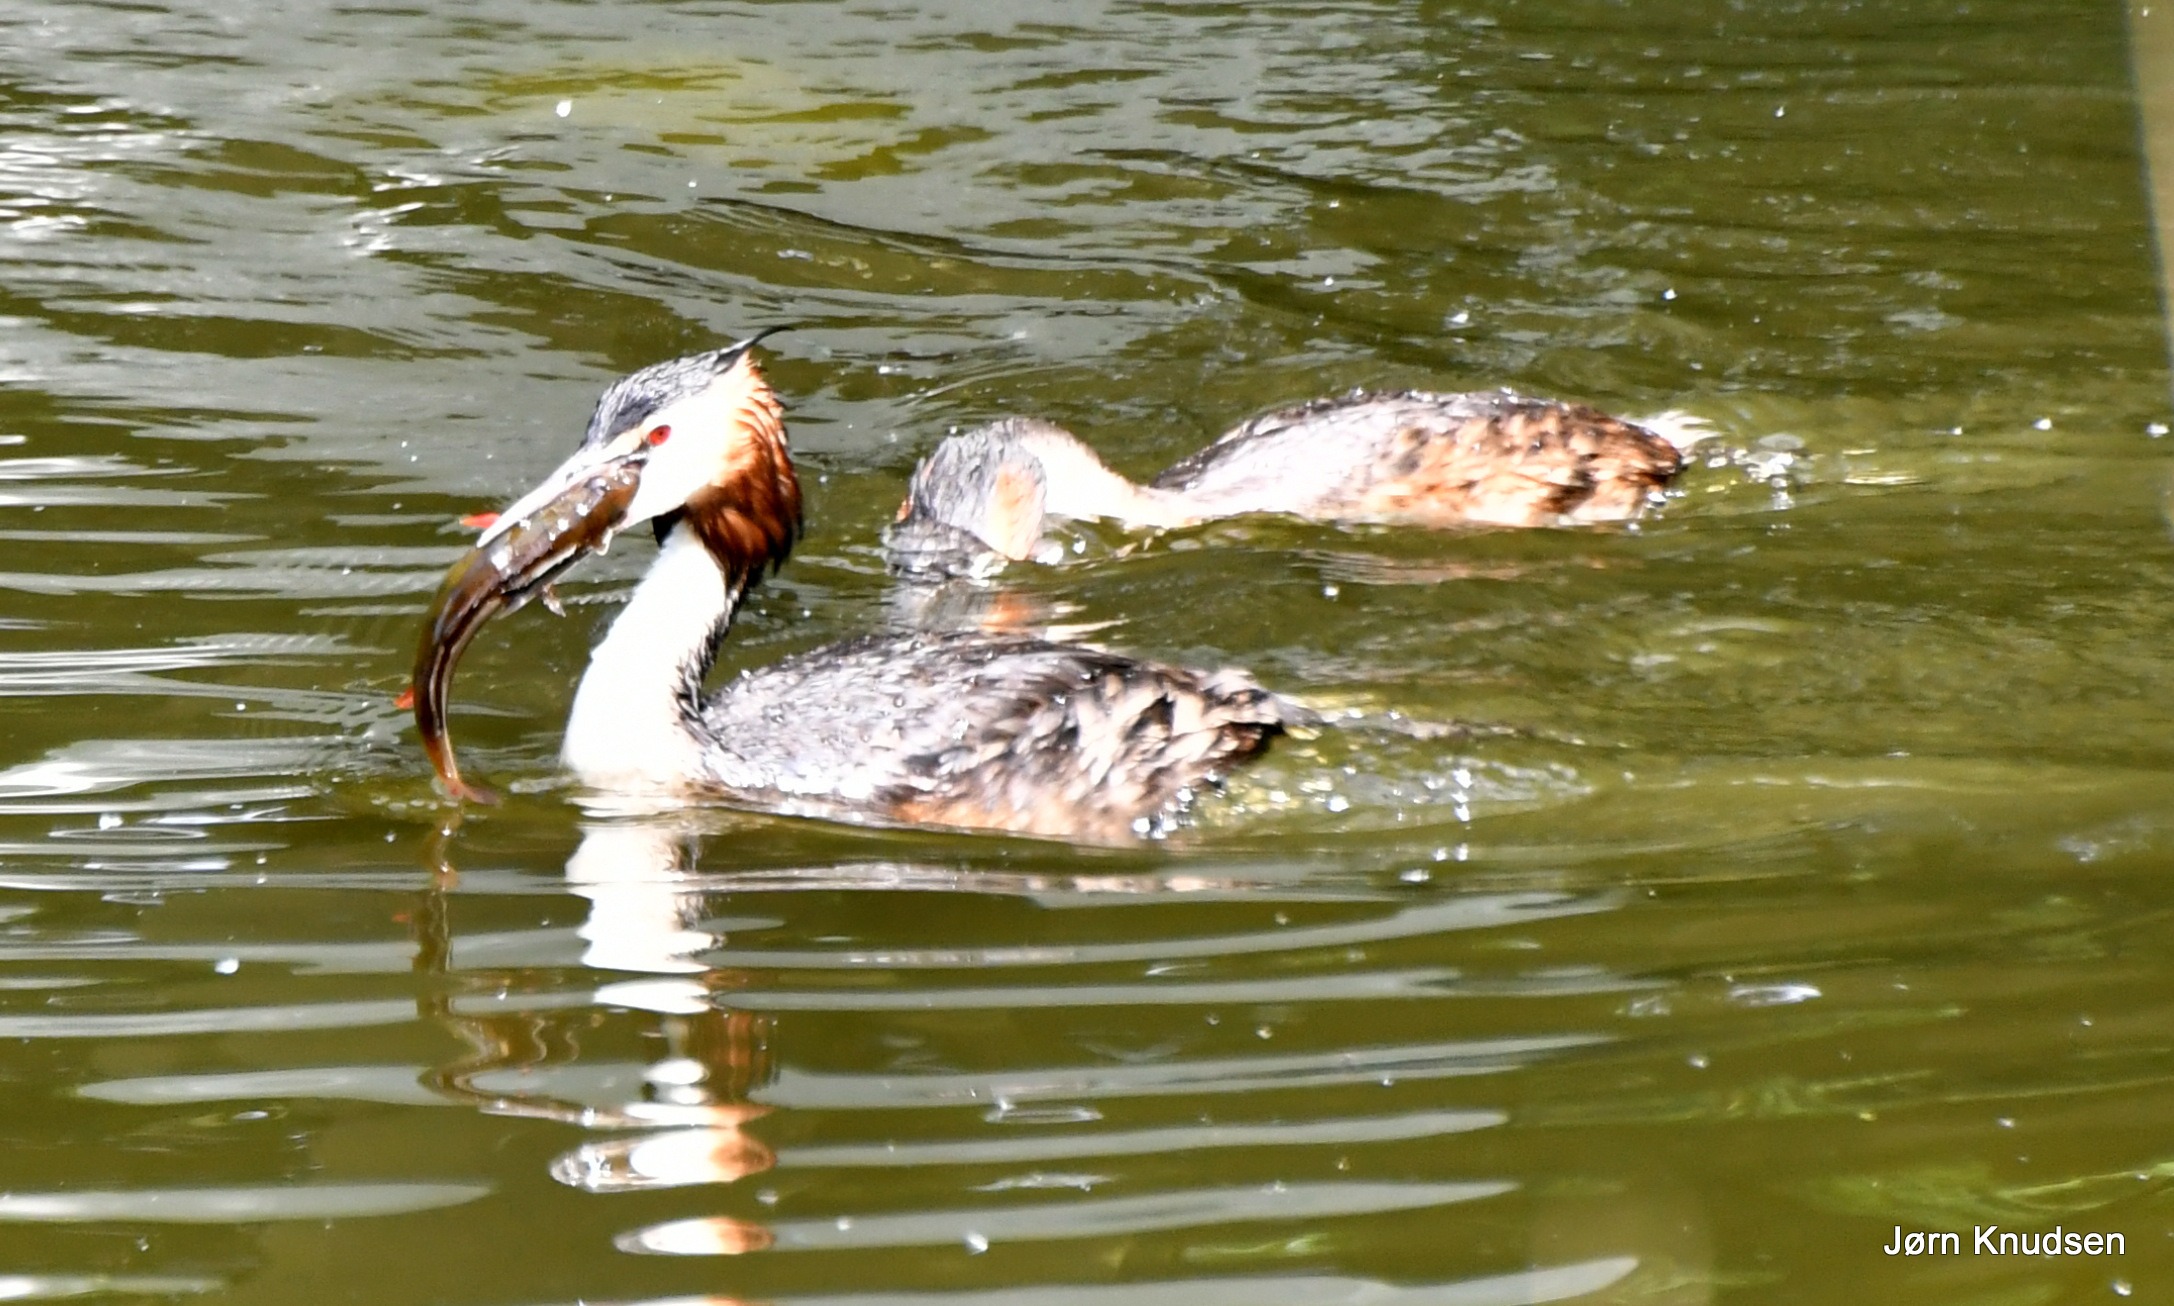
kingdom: Animalia
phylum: Chordata
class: Aves
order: Podicipediformes
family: Podicipedidae
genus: Podiceps
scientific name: Podiceps cristatus
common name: Toppet lappedykker
